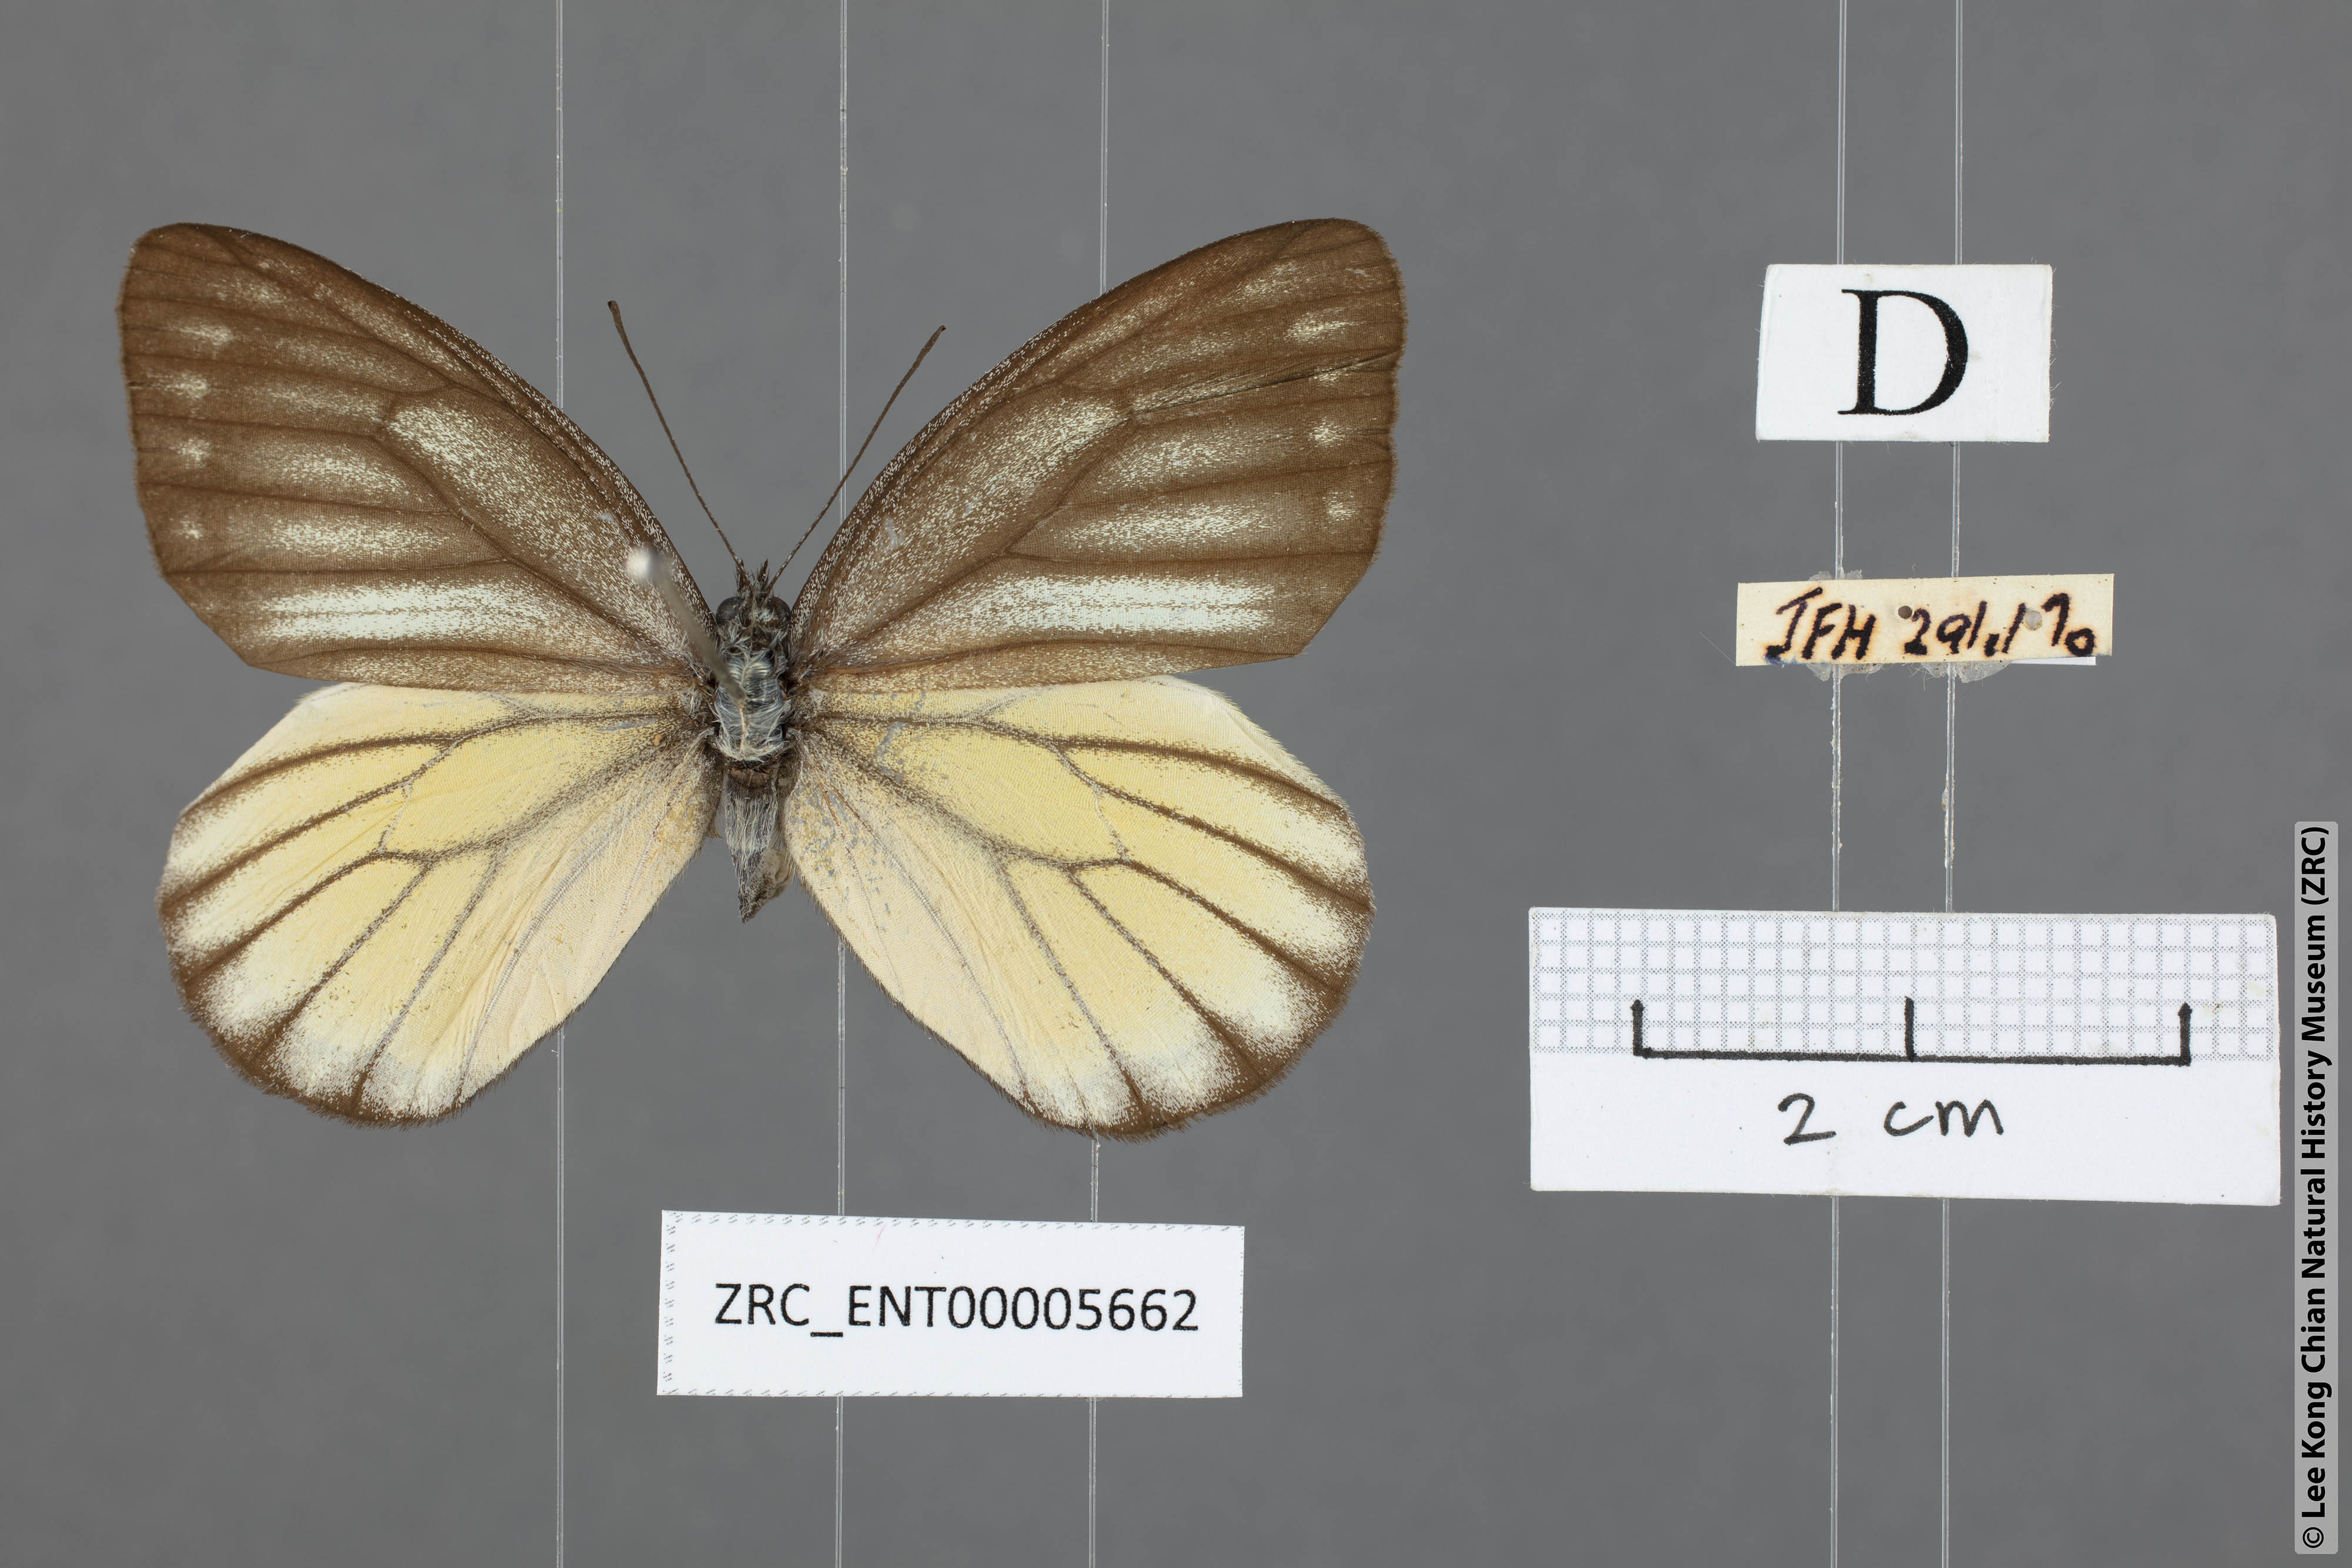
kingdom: Animalia
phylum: Arthropoda
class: Insecta
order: Lepidoptera
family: Pieridae
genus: Delias
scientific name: Delias baracasa
